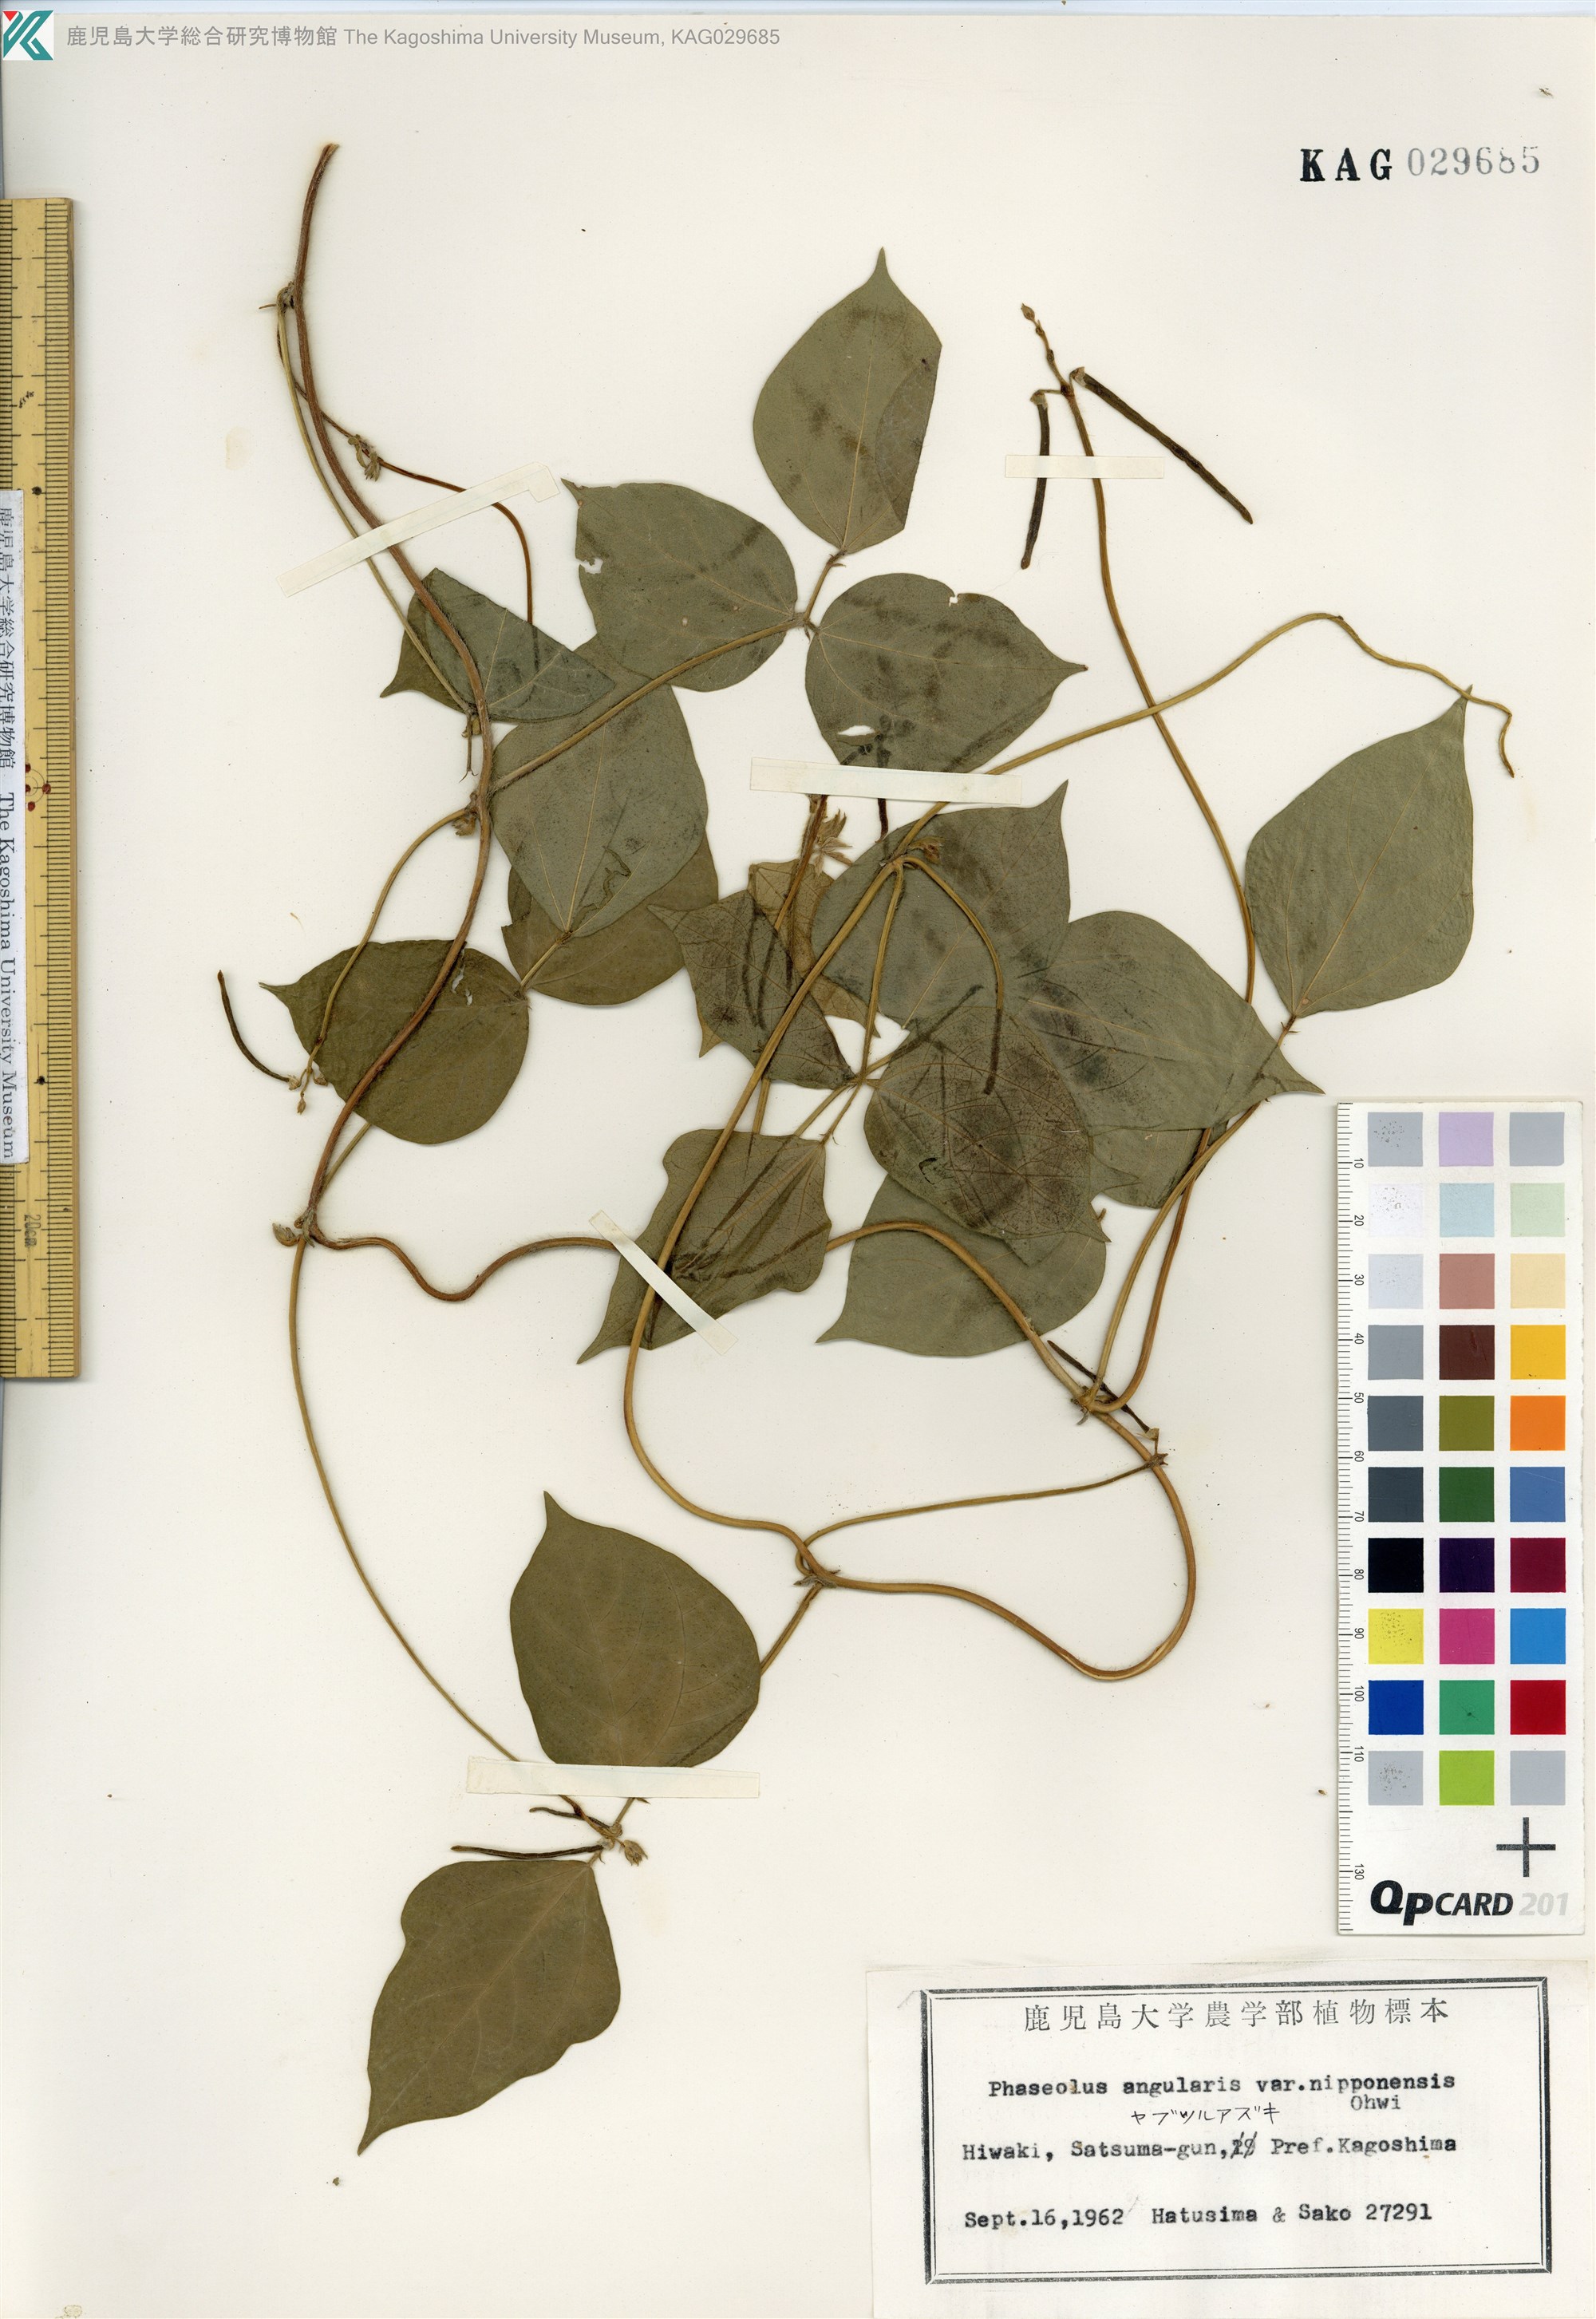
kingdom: Plantae
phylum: Tracheophyta
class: Magnoliopsida
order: Fabales
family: Fabaceae
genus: Vigna
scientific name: Vigna angularis
